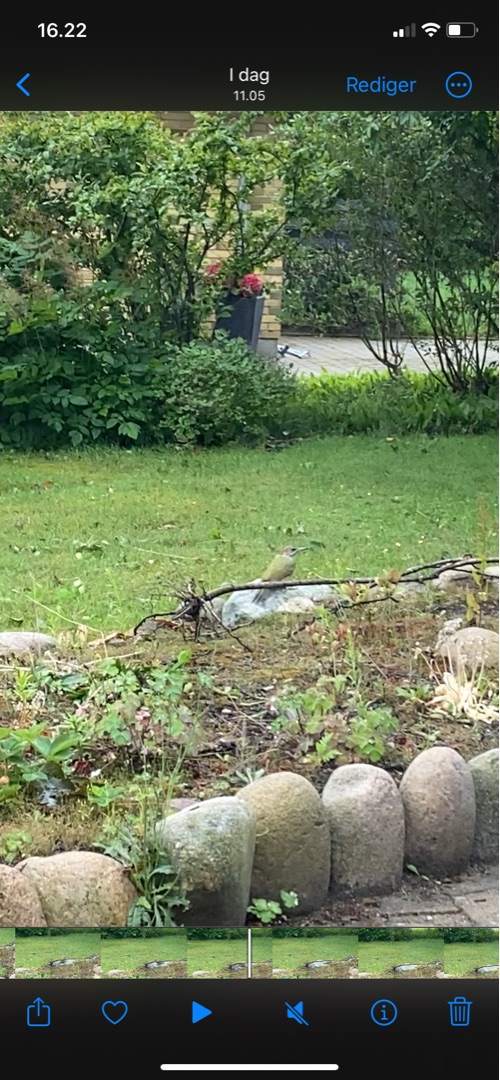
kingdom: Animalia
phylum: Chordata
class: Aves
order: Piciformes
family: Picidae
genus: Picus
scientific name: Picus viridis
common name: Grønspætte
